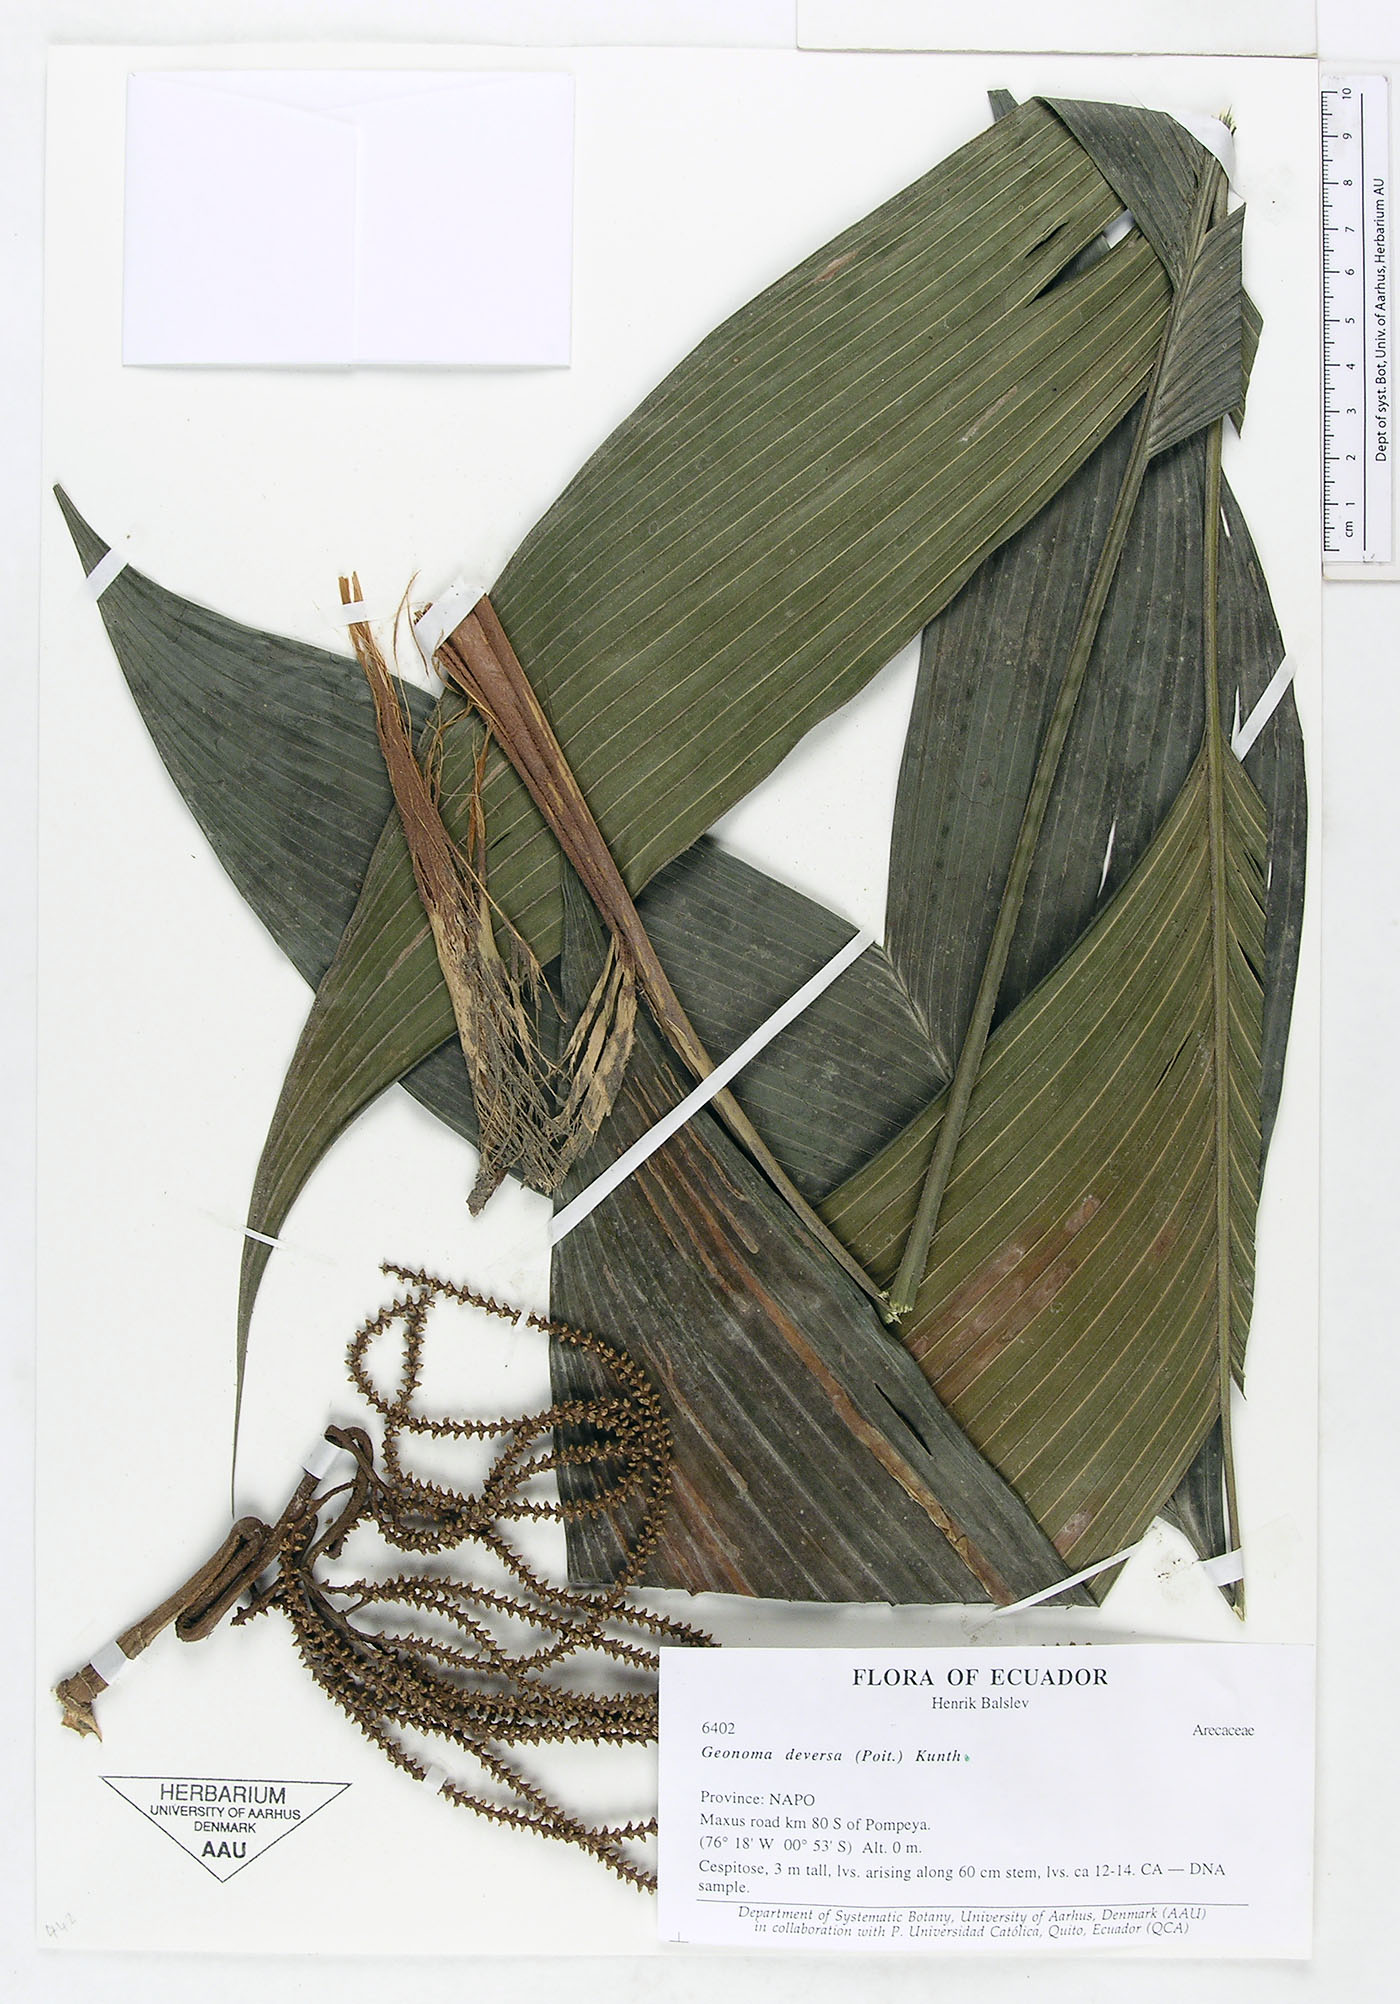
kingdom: Plantae
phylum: Tracheophyta
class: Liliopsida
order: Arecales
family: Arecaceae
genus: Geonoma
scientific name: Geonoma deversa
